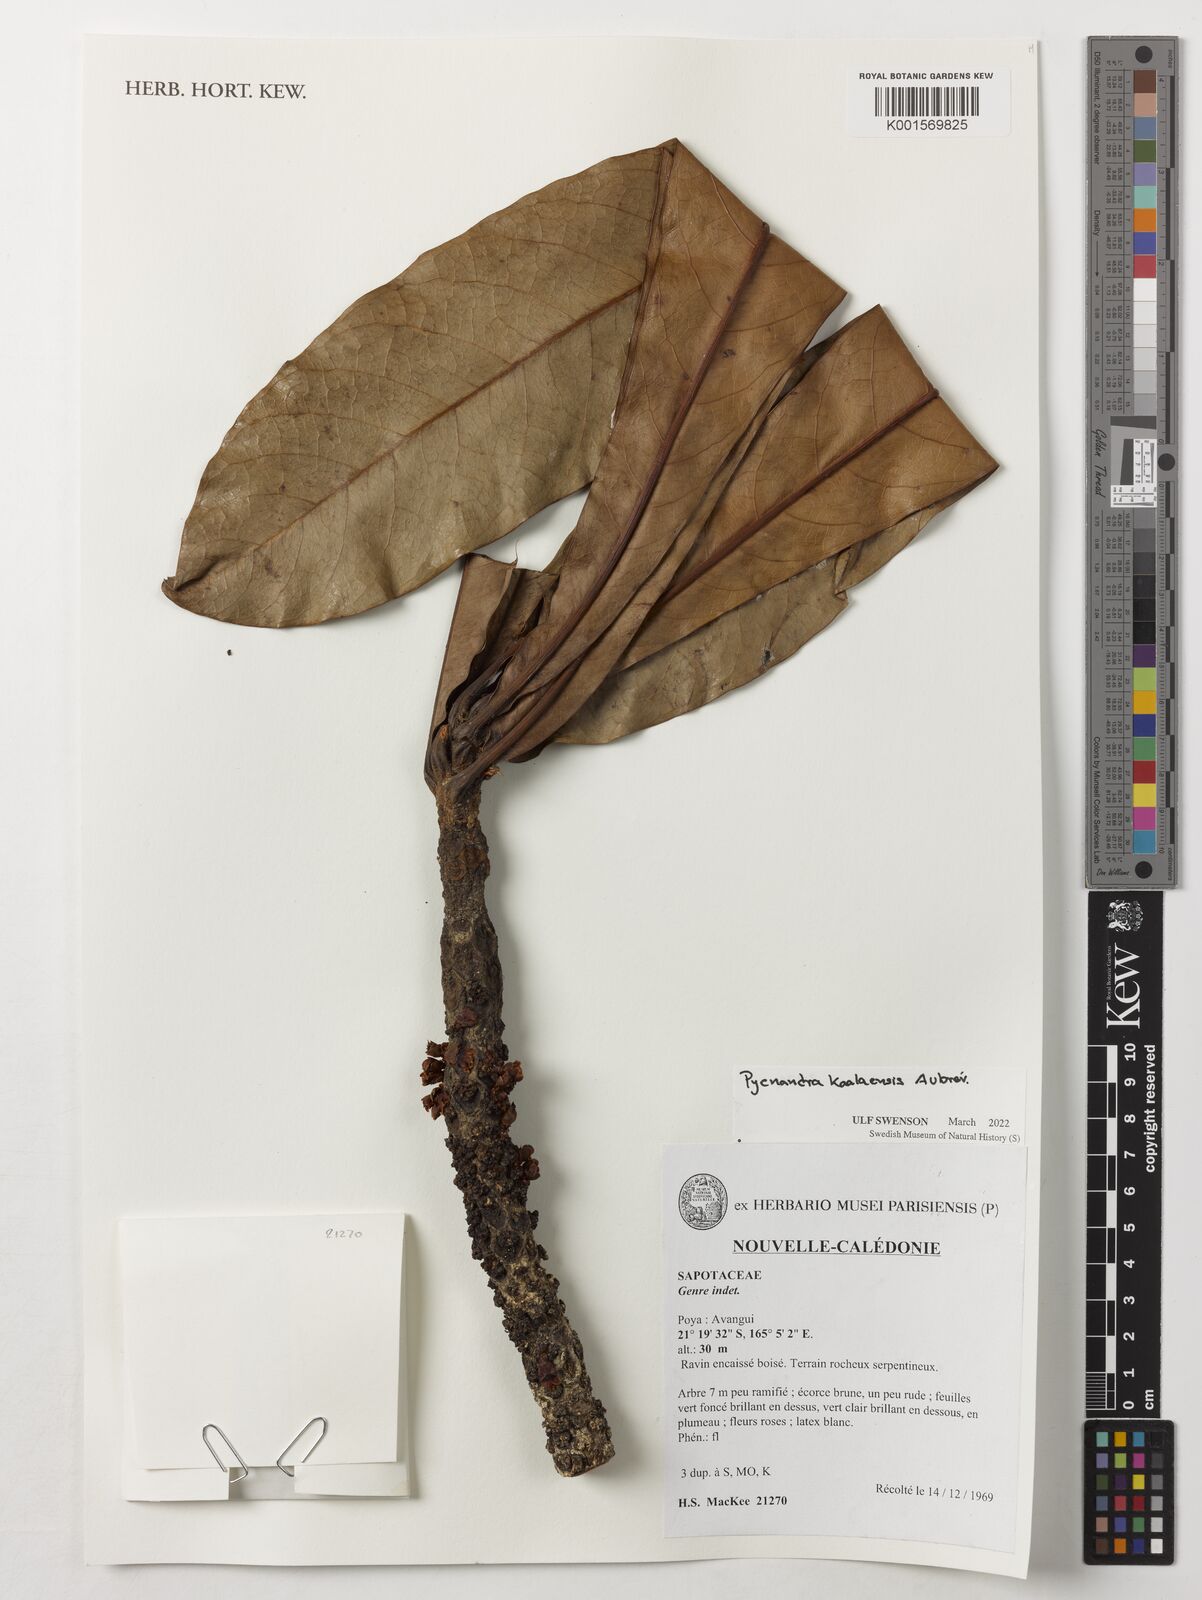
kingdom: Plantae
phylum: Tracheophyta
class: Magnoliopsida
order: Ericales
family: Sapotaceae
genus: Pycnandra
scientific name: Pycnandra kaalaensis
